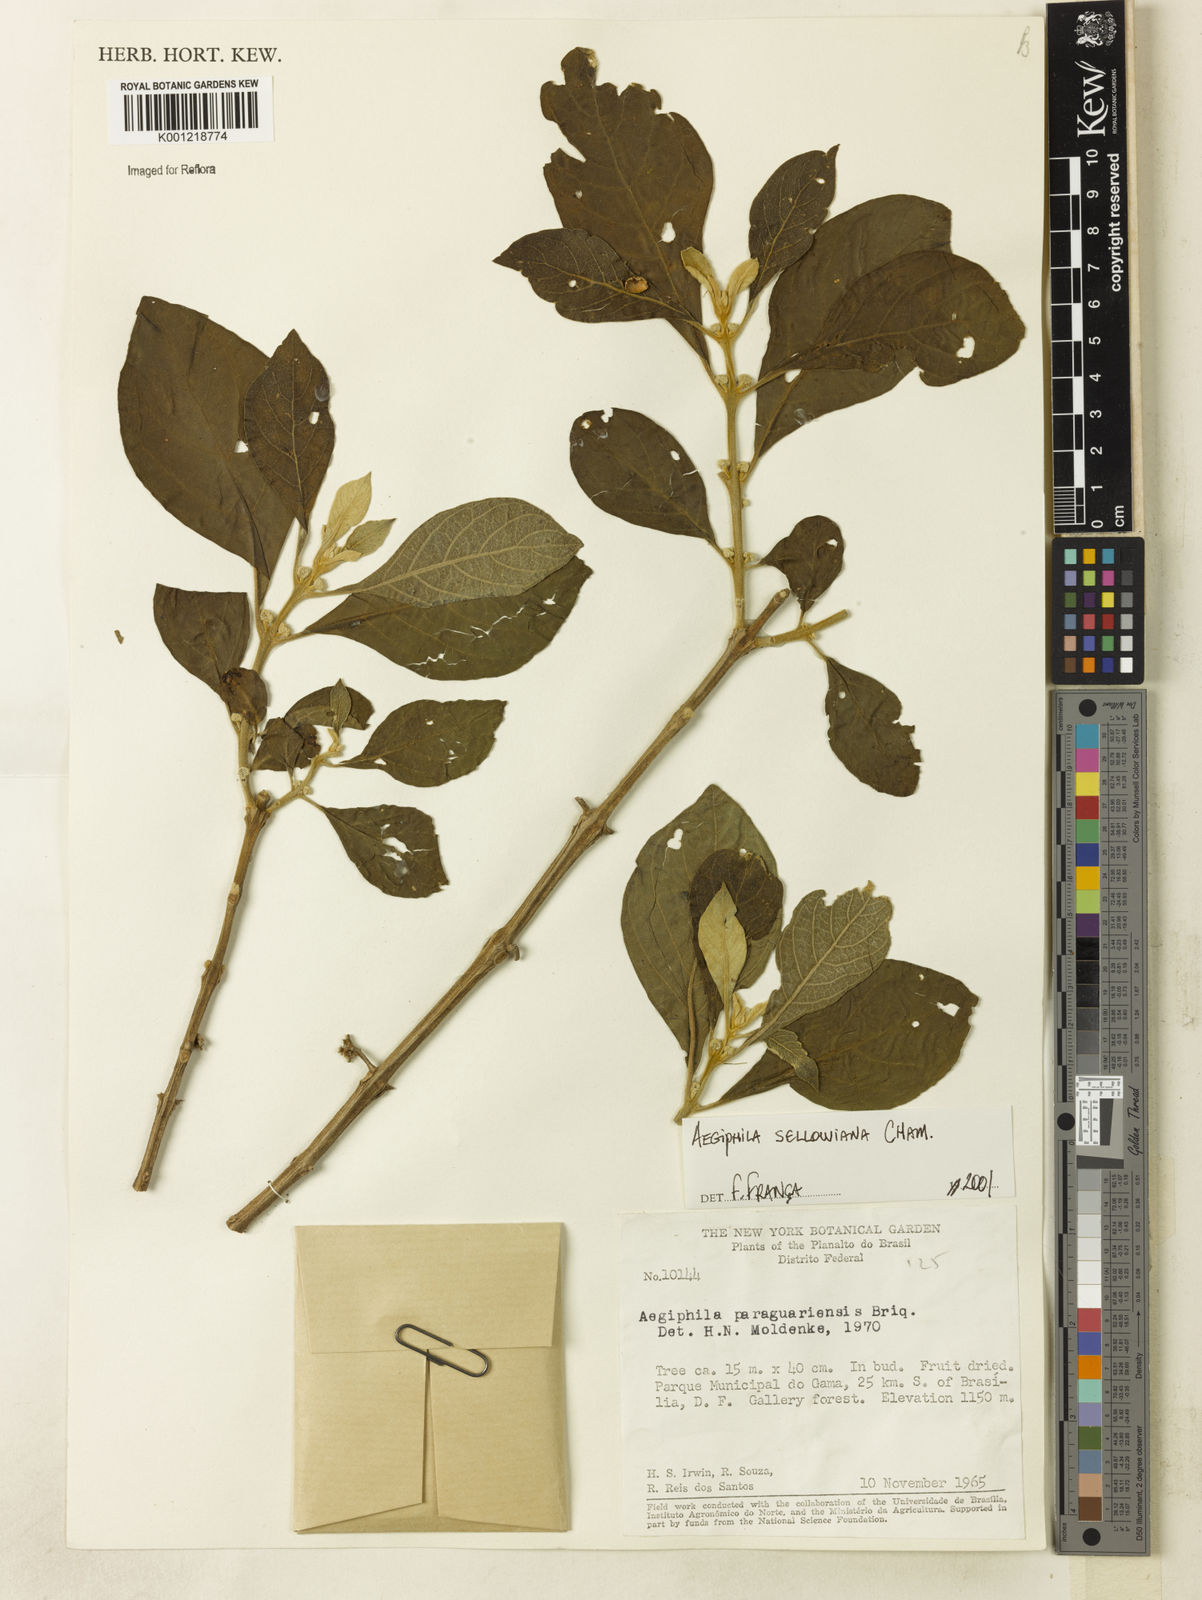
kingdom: Plantae
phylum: Tracheophyta
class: Magnoliopsida
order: Lamiales
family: Lamiaceae
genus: Aegiphila
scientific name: Aegiphila verticillata
